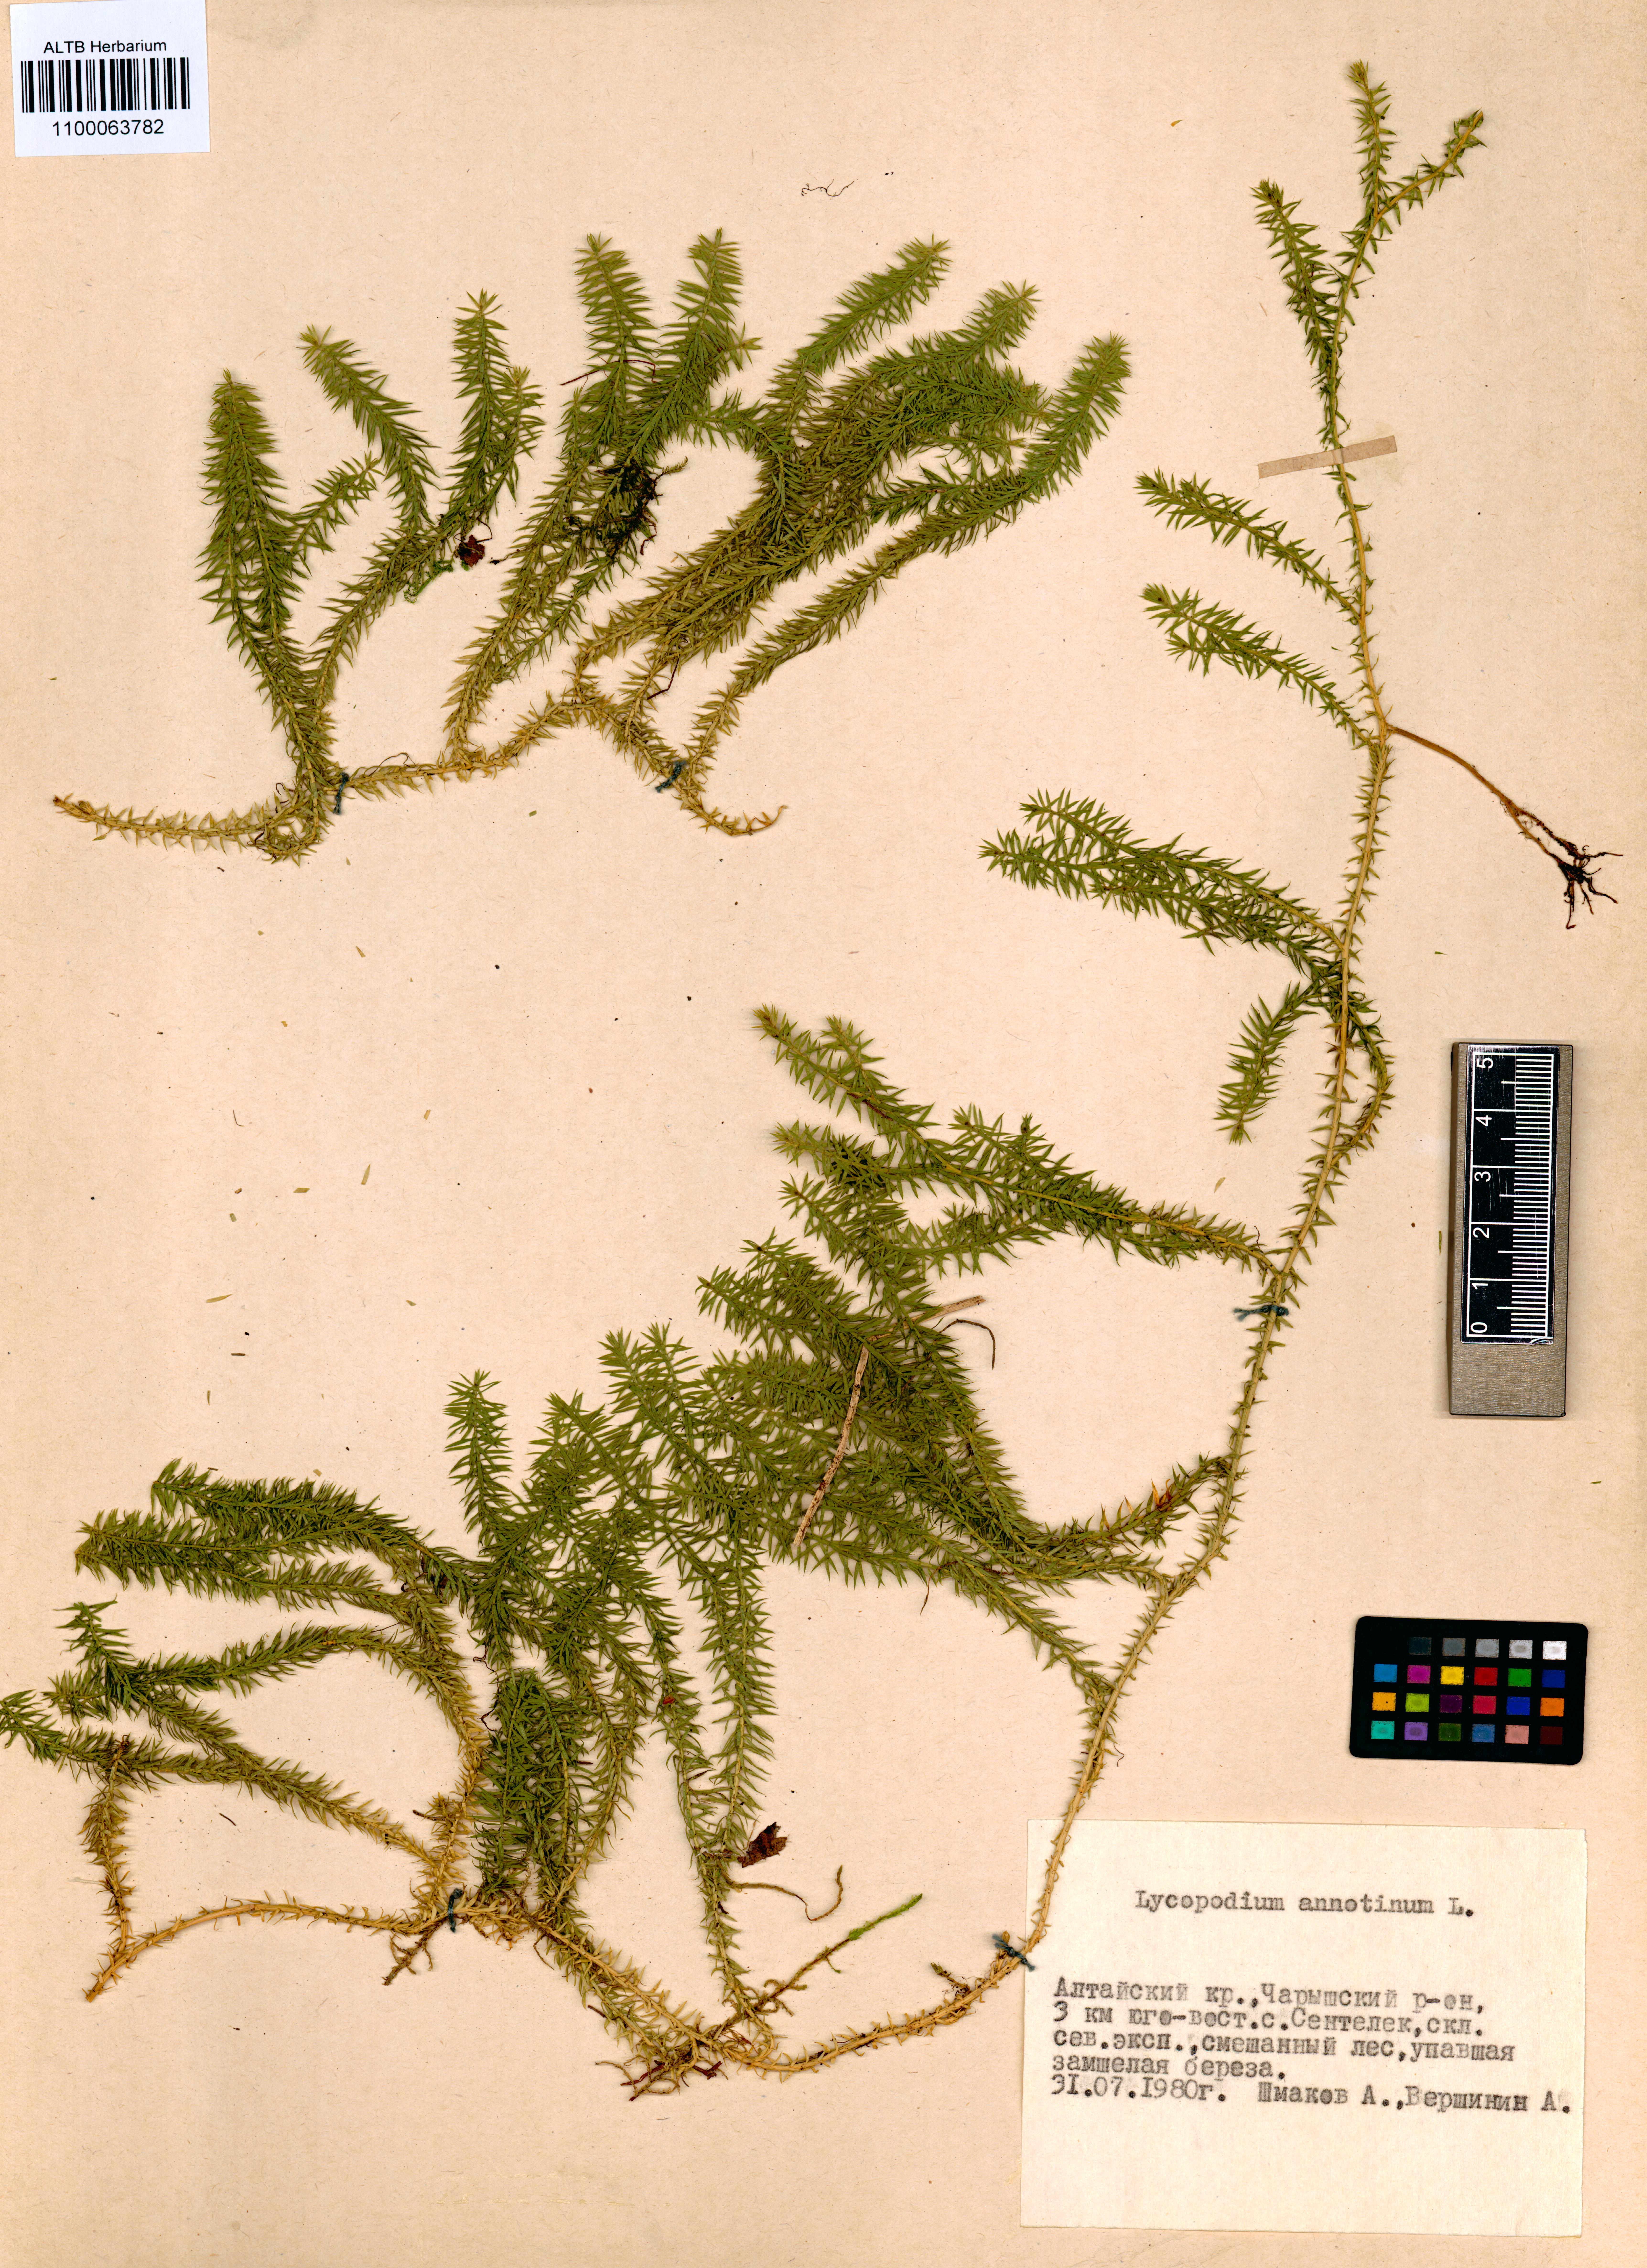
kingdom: Plantae
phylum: Tracheophyta
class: Lycopodiopsida
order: Lycopodiales
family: Lycopodiaceae
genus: Spinulum
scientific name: Spinulum annotinum
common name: Interrupted club-moss
